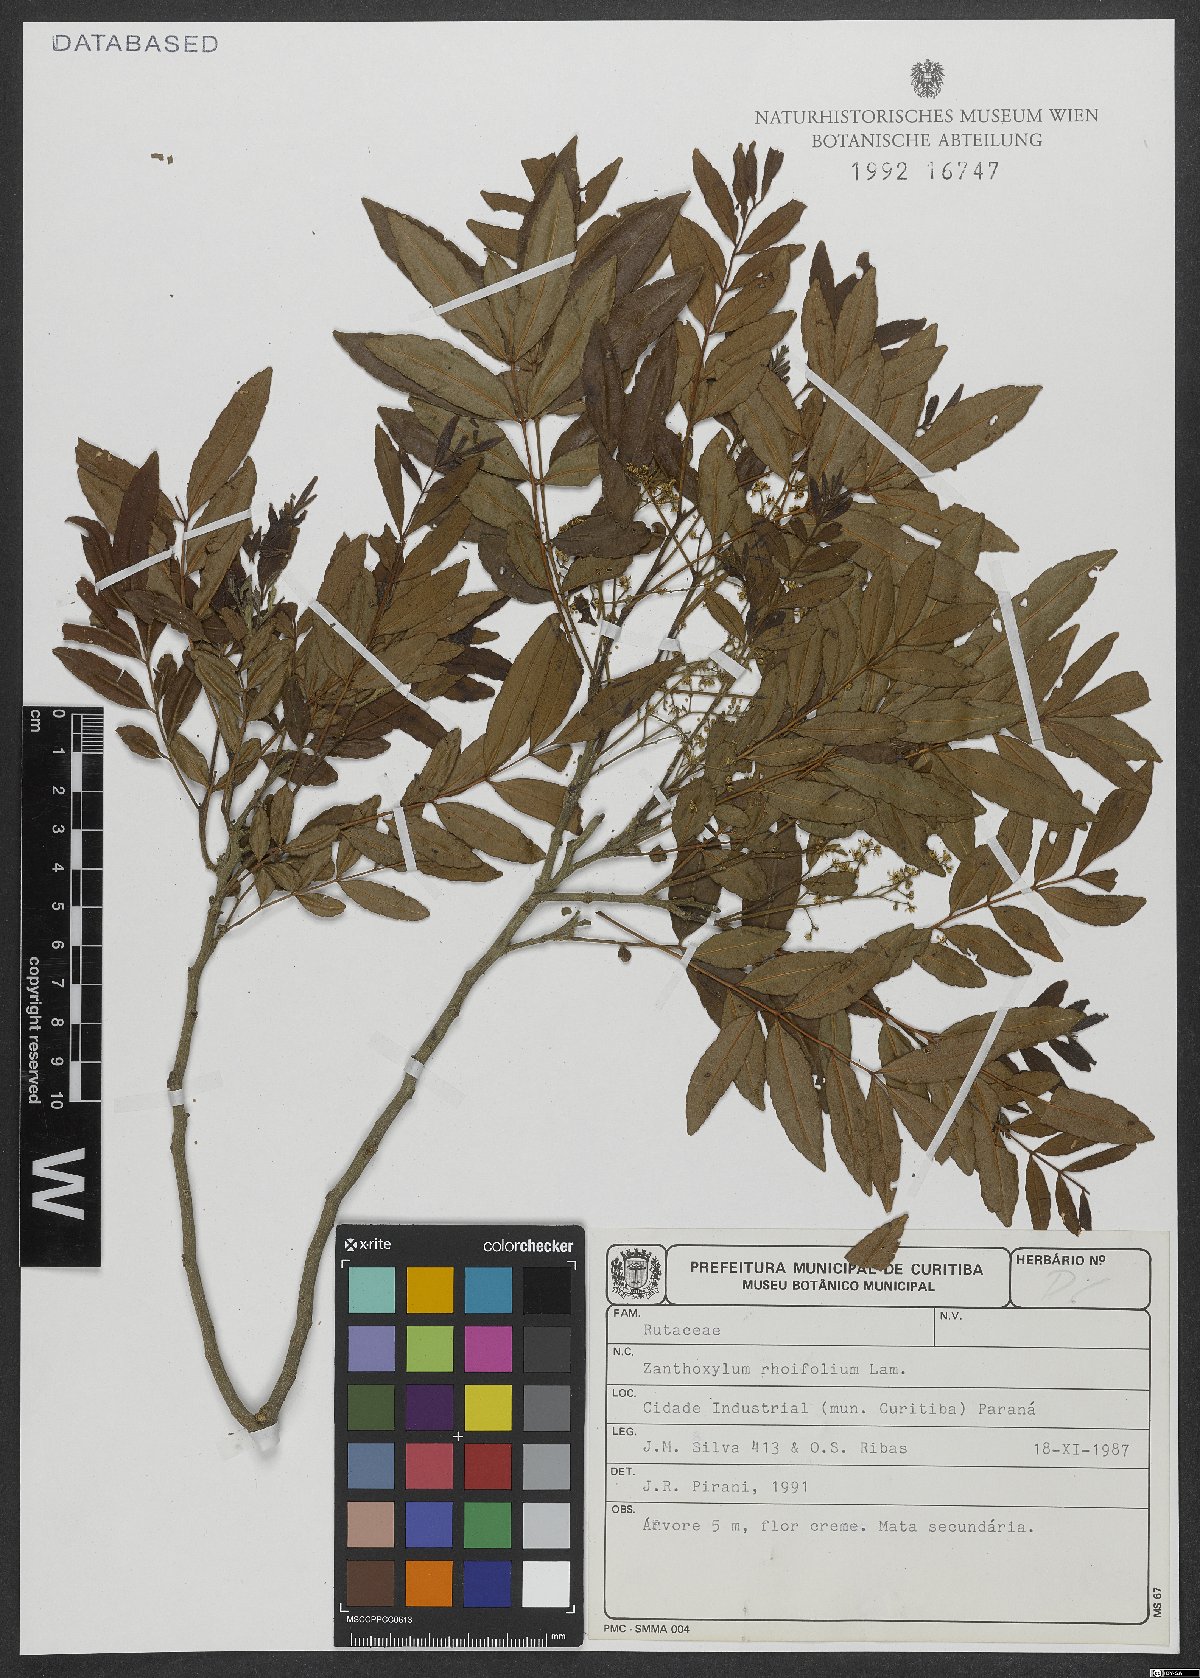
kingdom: Plantae
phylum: Tracheophyta
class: Magnoliopsida
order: Sapindales
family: Rutaceae
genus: Zanthoxylum
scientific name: Zanthoxylum rhoifolium
